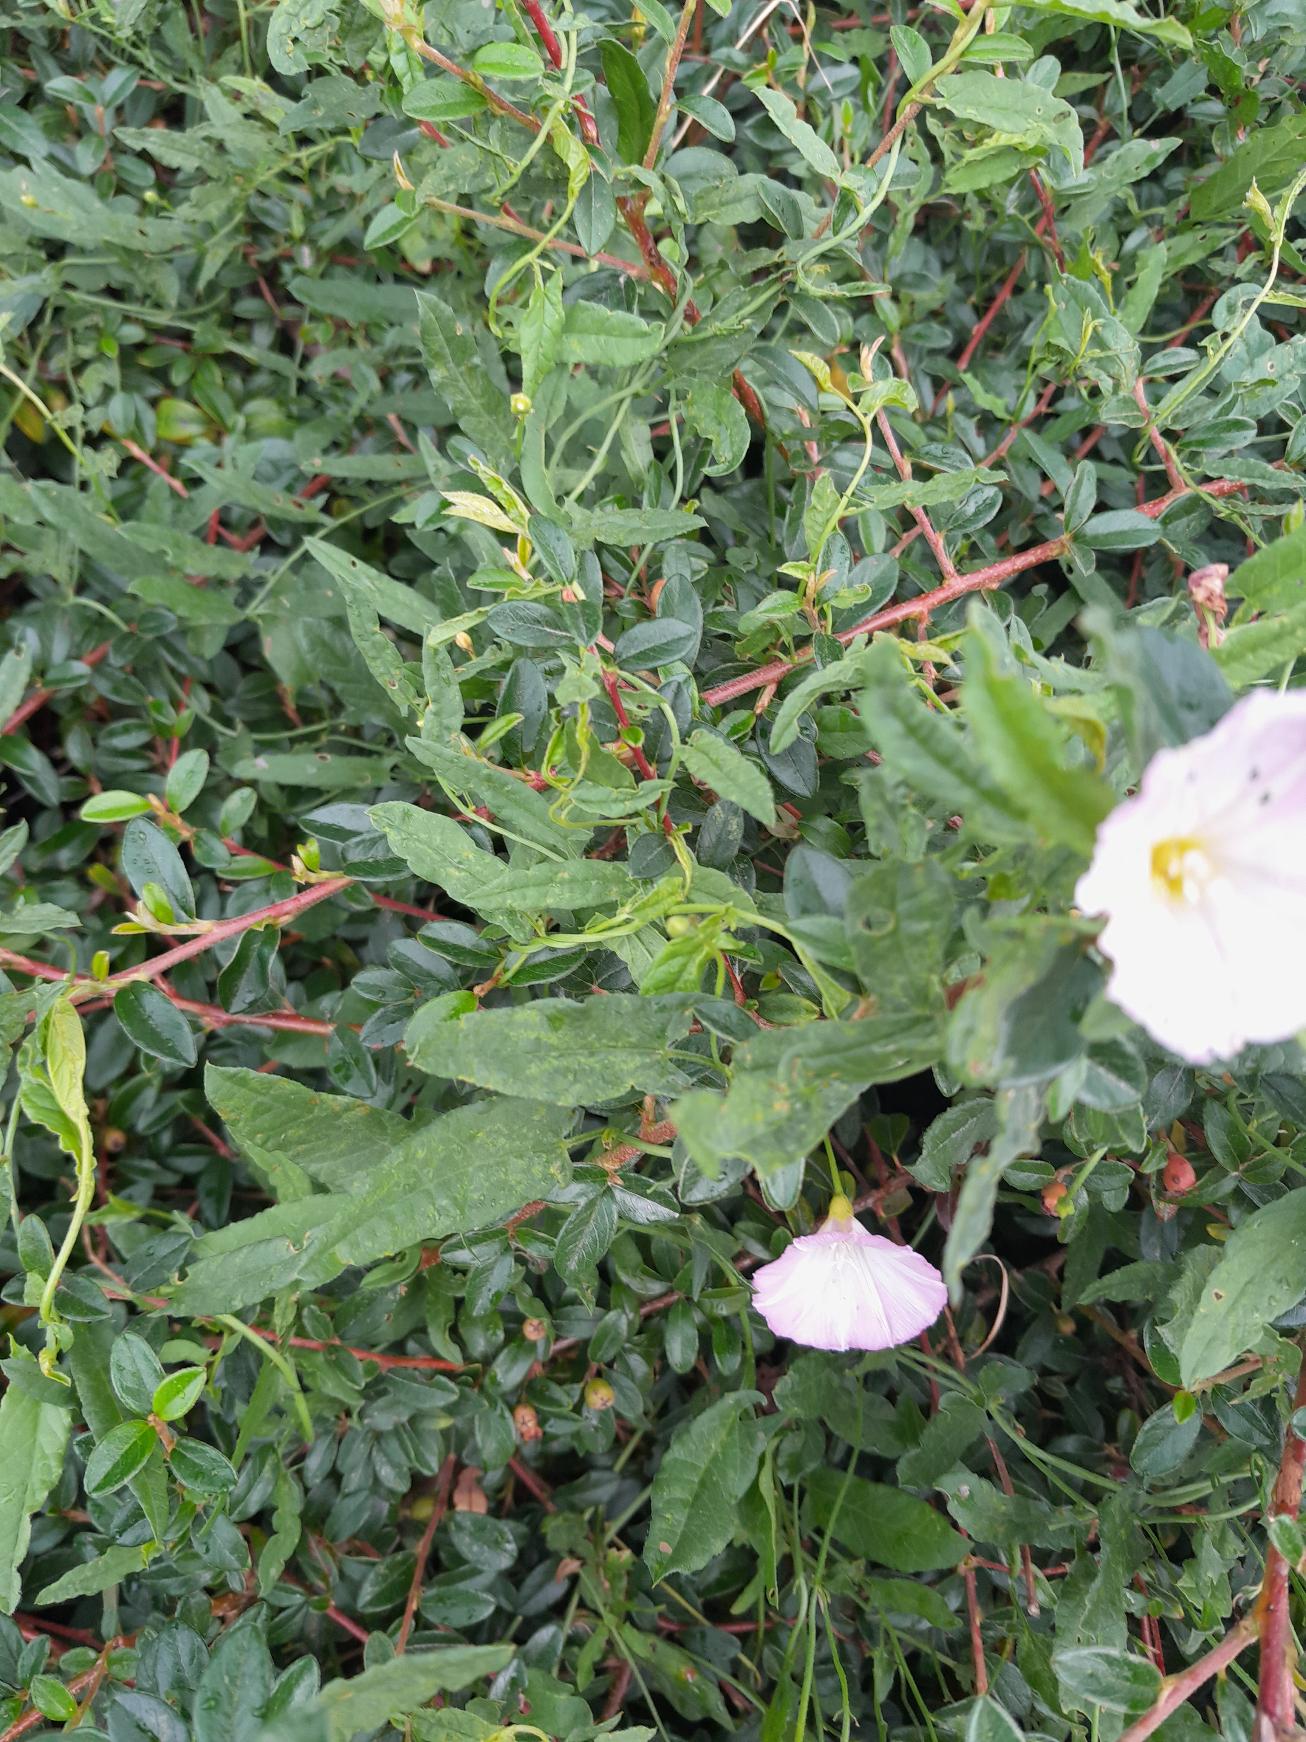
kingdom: Plantae
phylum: Tracheophyta
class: Magnoliopsida
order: Solanales
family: Convolvulaceae
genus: Convolvulus
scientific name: Convolvulus arvensis
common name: Ager-snerle
